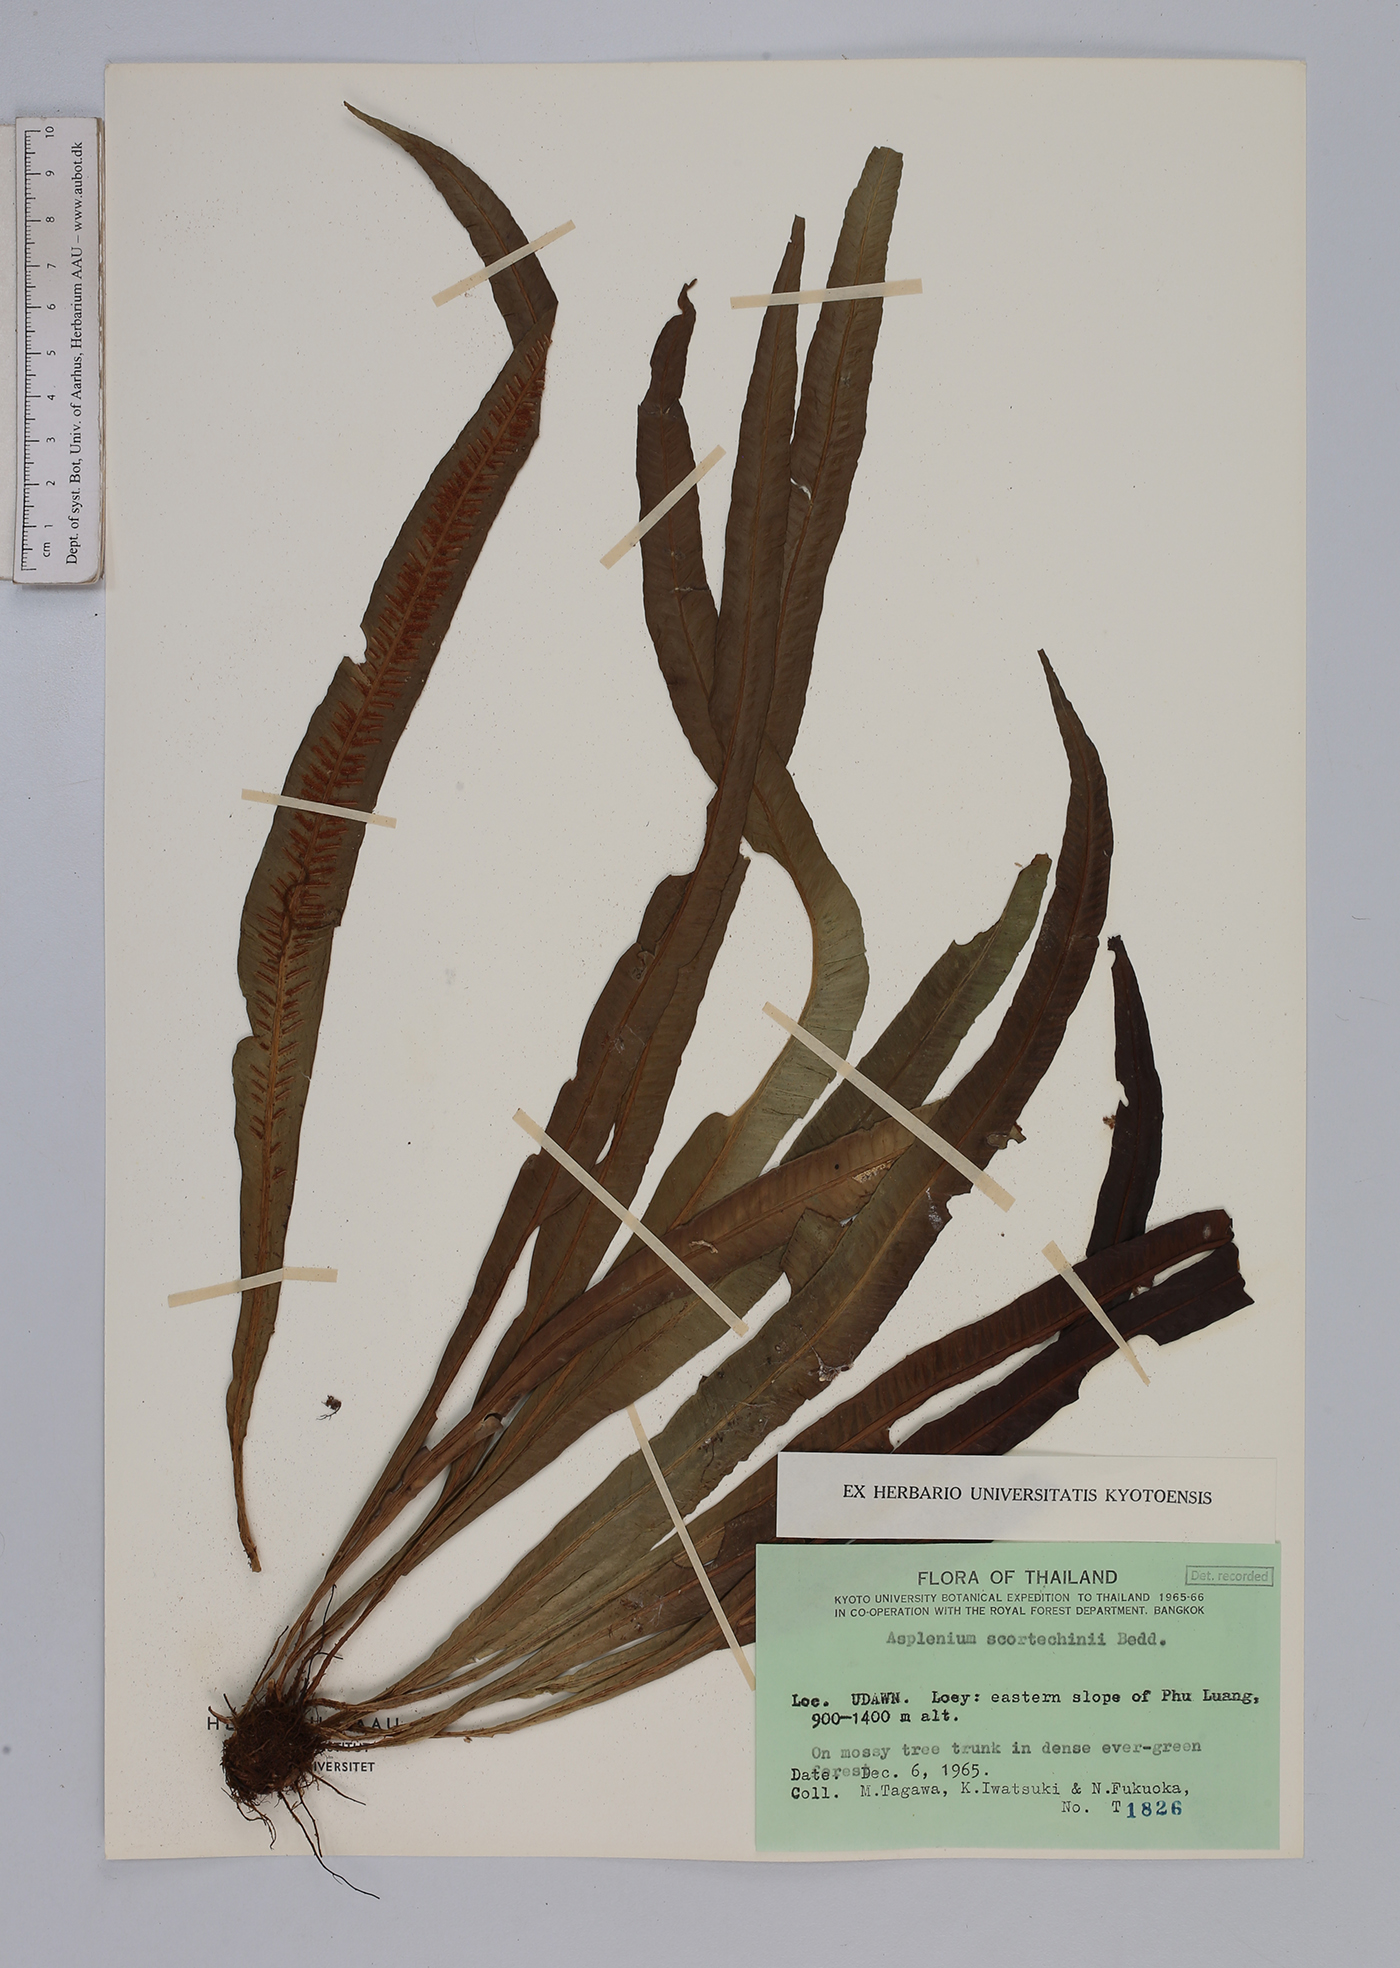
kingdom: Plantae
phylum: Tracheophyta
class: Polypodiopsida
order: Polypodiales
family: Aspleniaceae
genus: Asplenium
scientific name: Asplenium scortechinii
